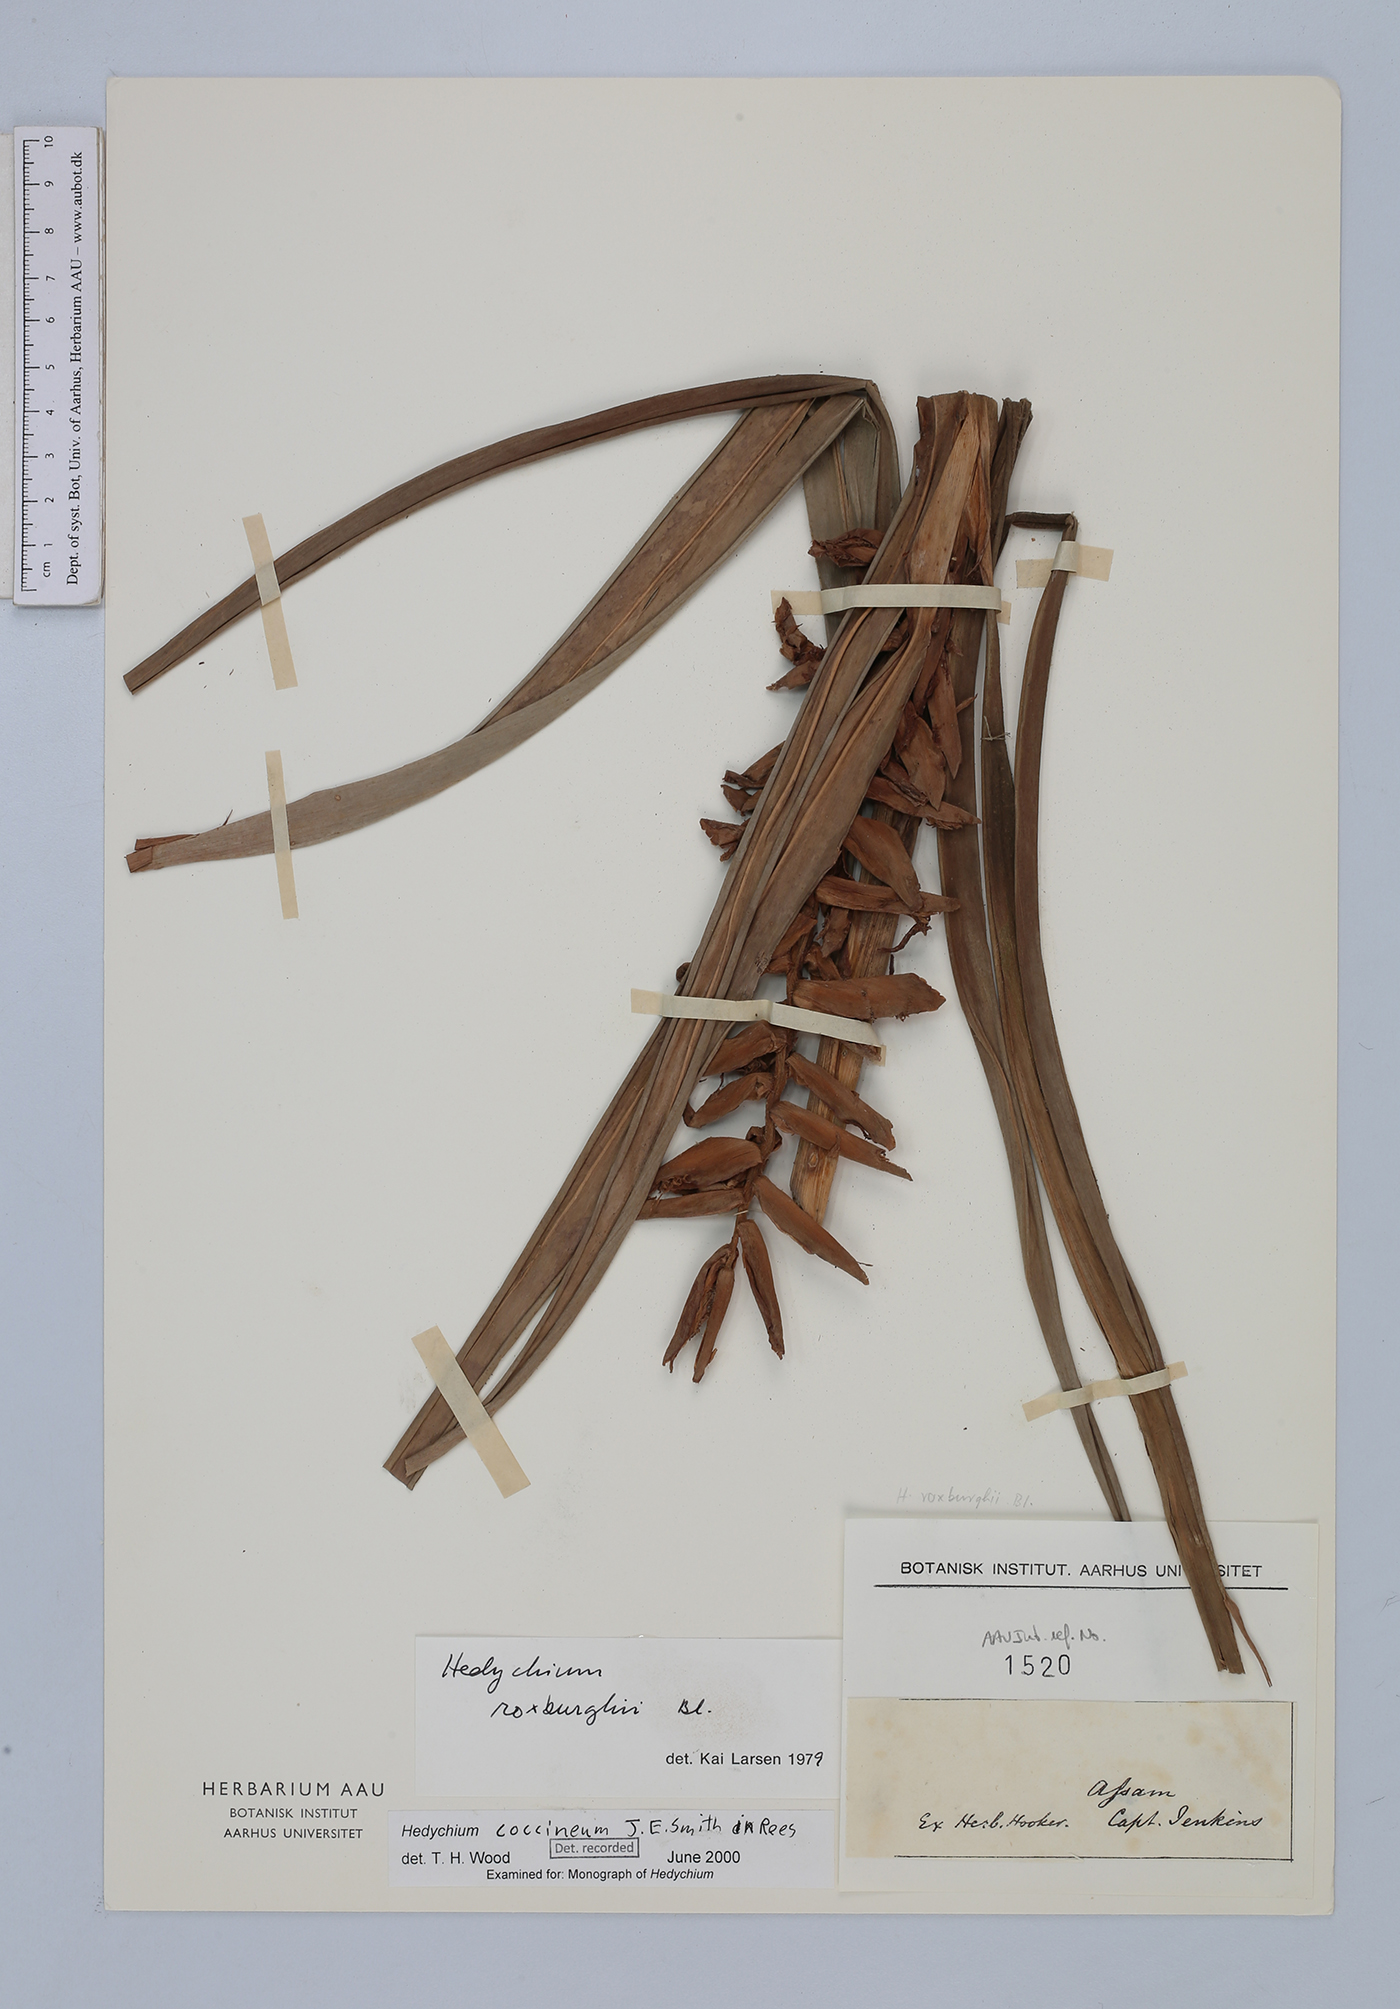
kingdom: Plantae
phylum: Tracheophyta
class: Liliopsida
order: Zingiberales
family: Zingiberaceae
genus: Hedychium
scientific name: Hedychium coccineum
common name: Red ginger-lily
